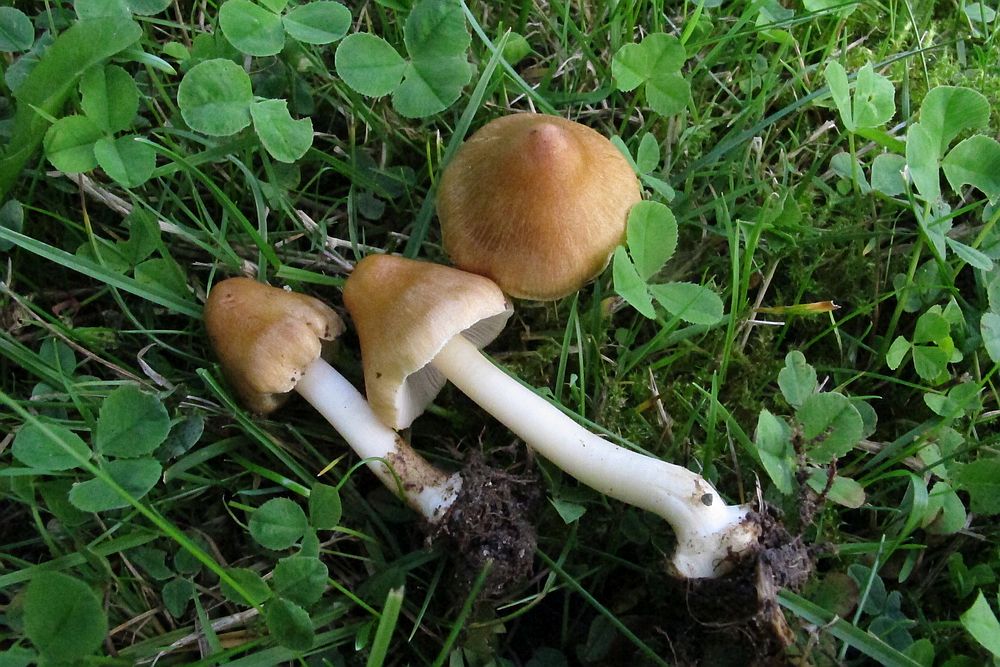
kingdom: Fungi
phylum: Basidiomycota
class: Agaricomycetes
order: Agaricales
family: Inocybaceae
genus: Inocybe
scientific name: Inocybe mixtilis
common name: randknoldet trævlhat
